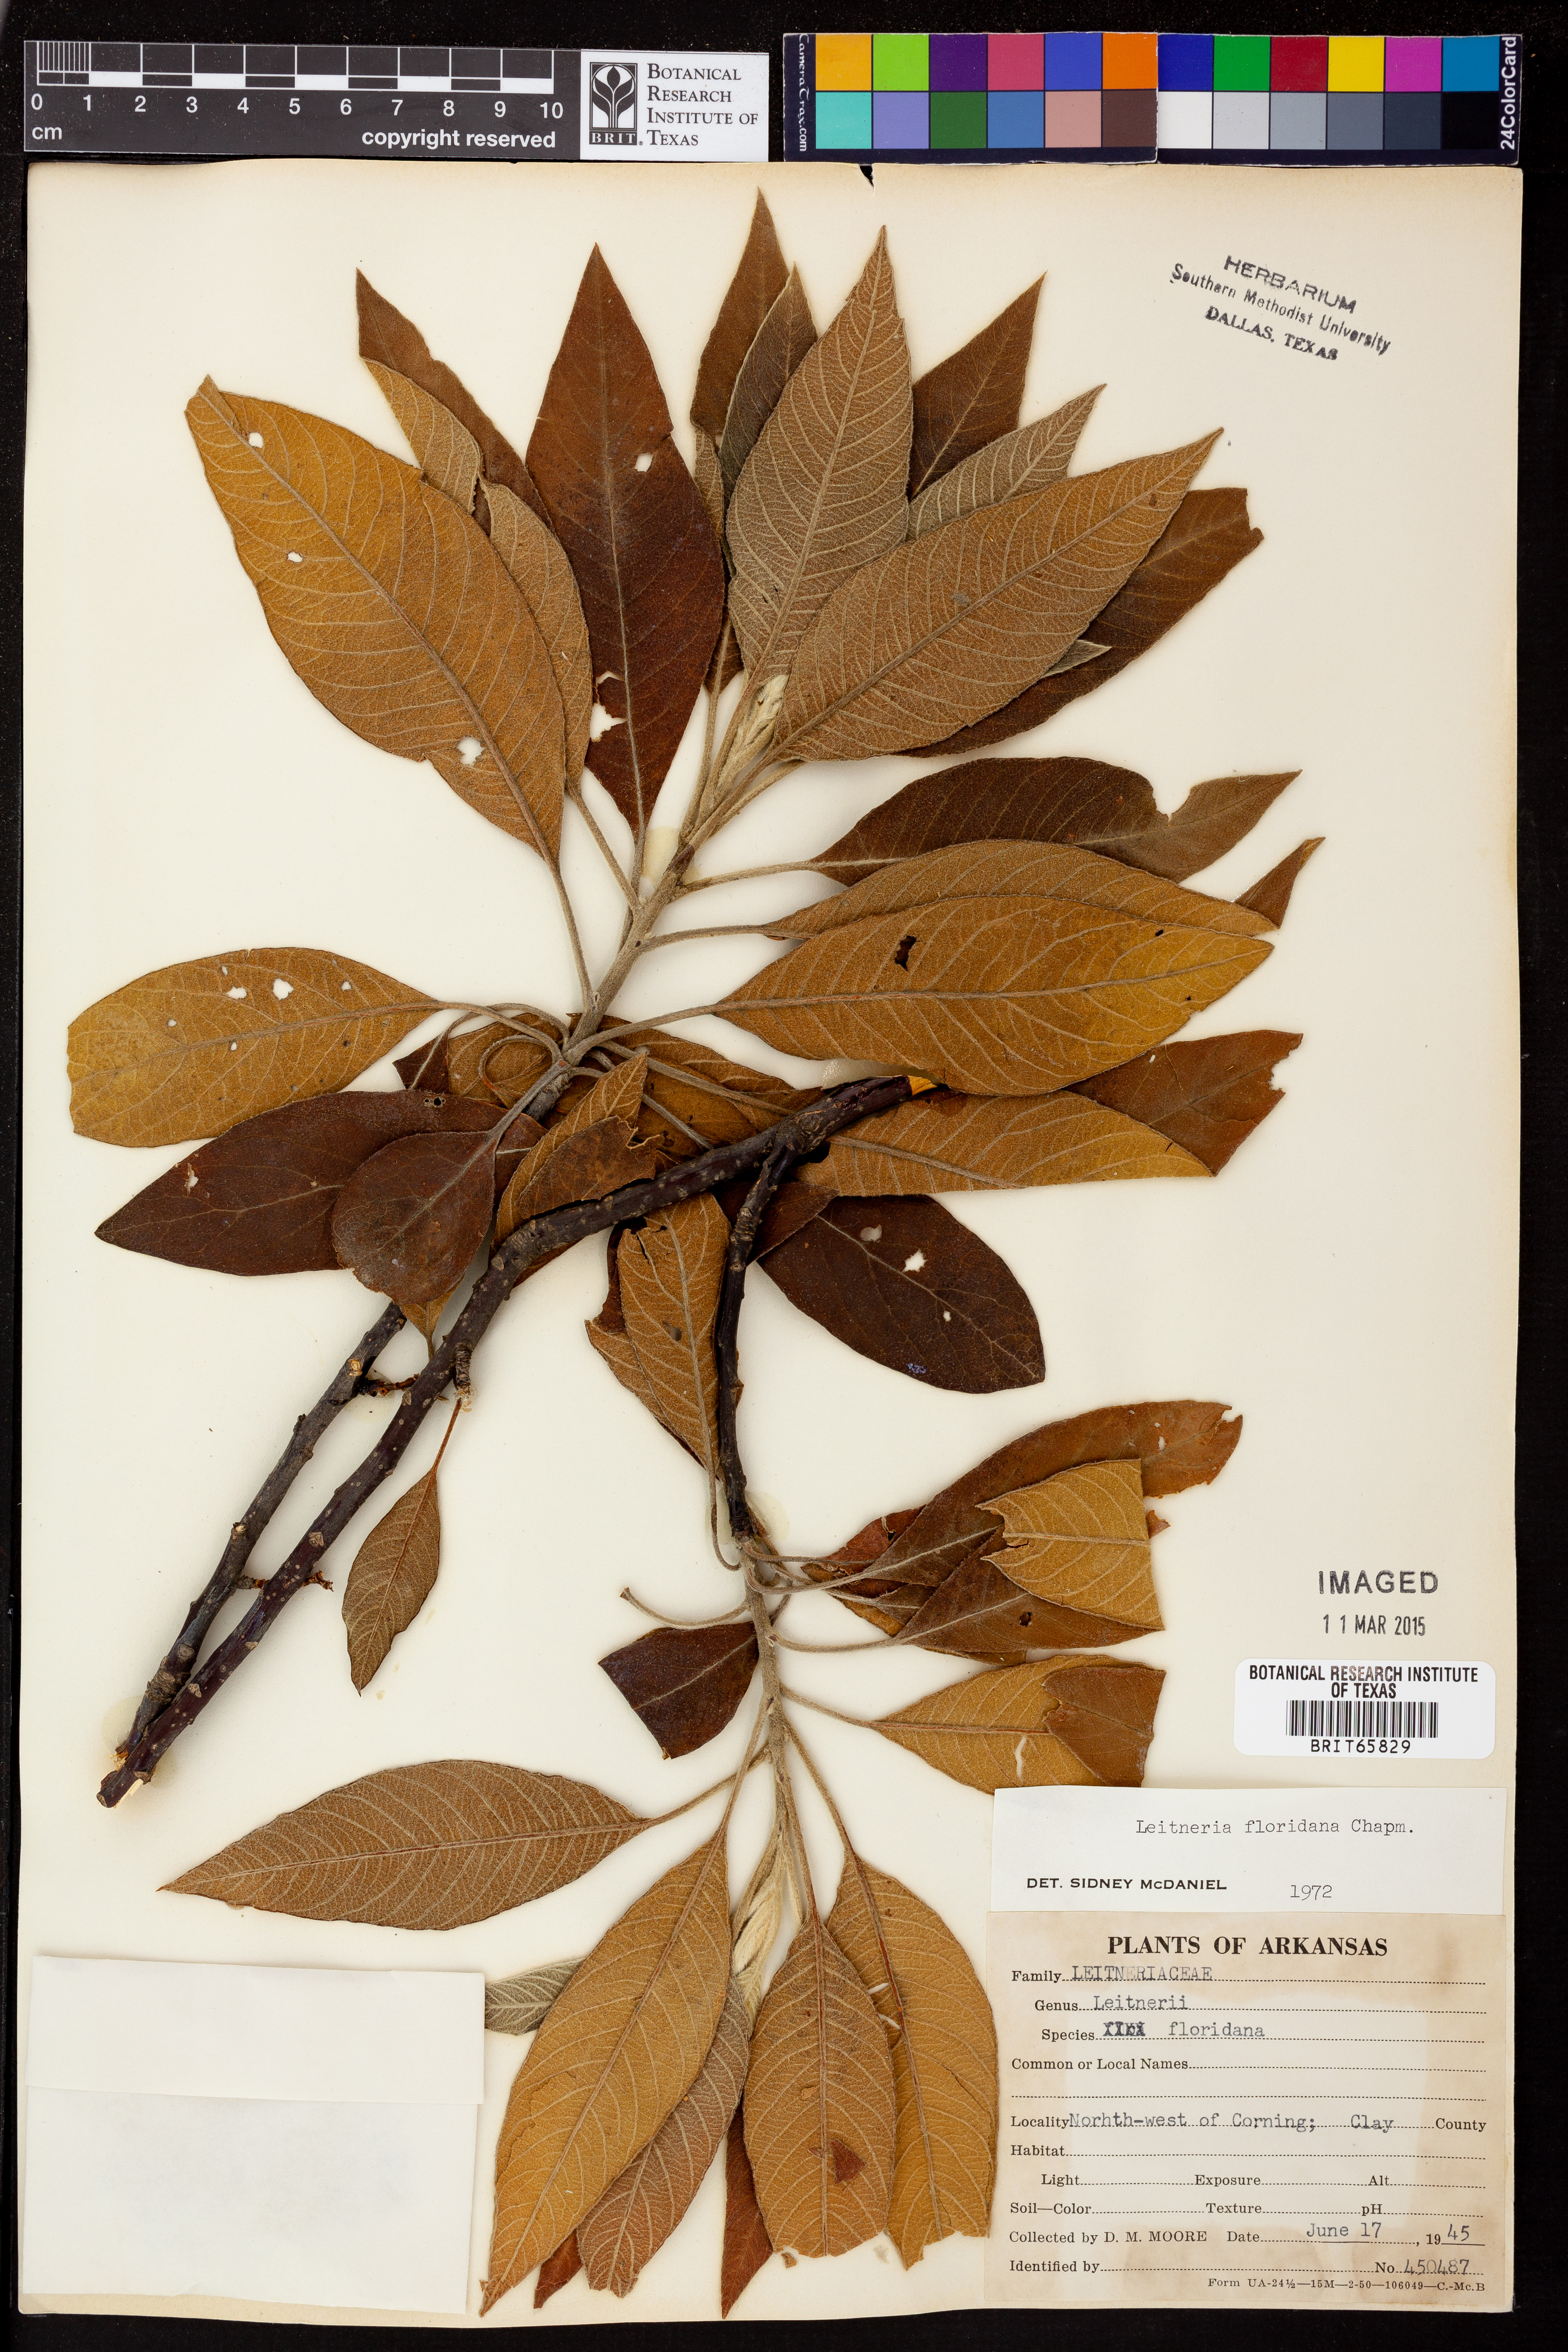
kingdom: Plantae
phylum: Tracheophyta
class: Magnoliopsida
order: Sapindales
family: Simaroubaceae
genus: Leitneria
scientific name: Leitneria floridana
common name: Corkwood
